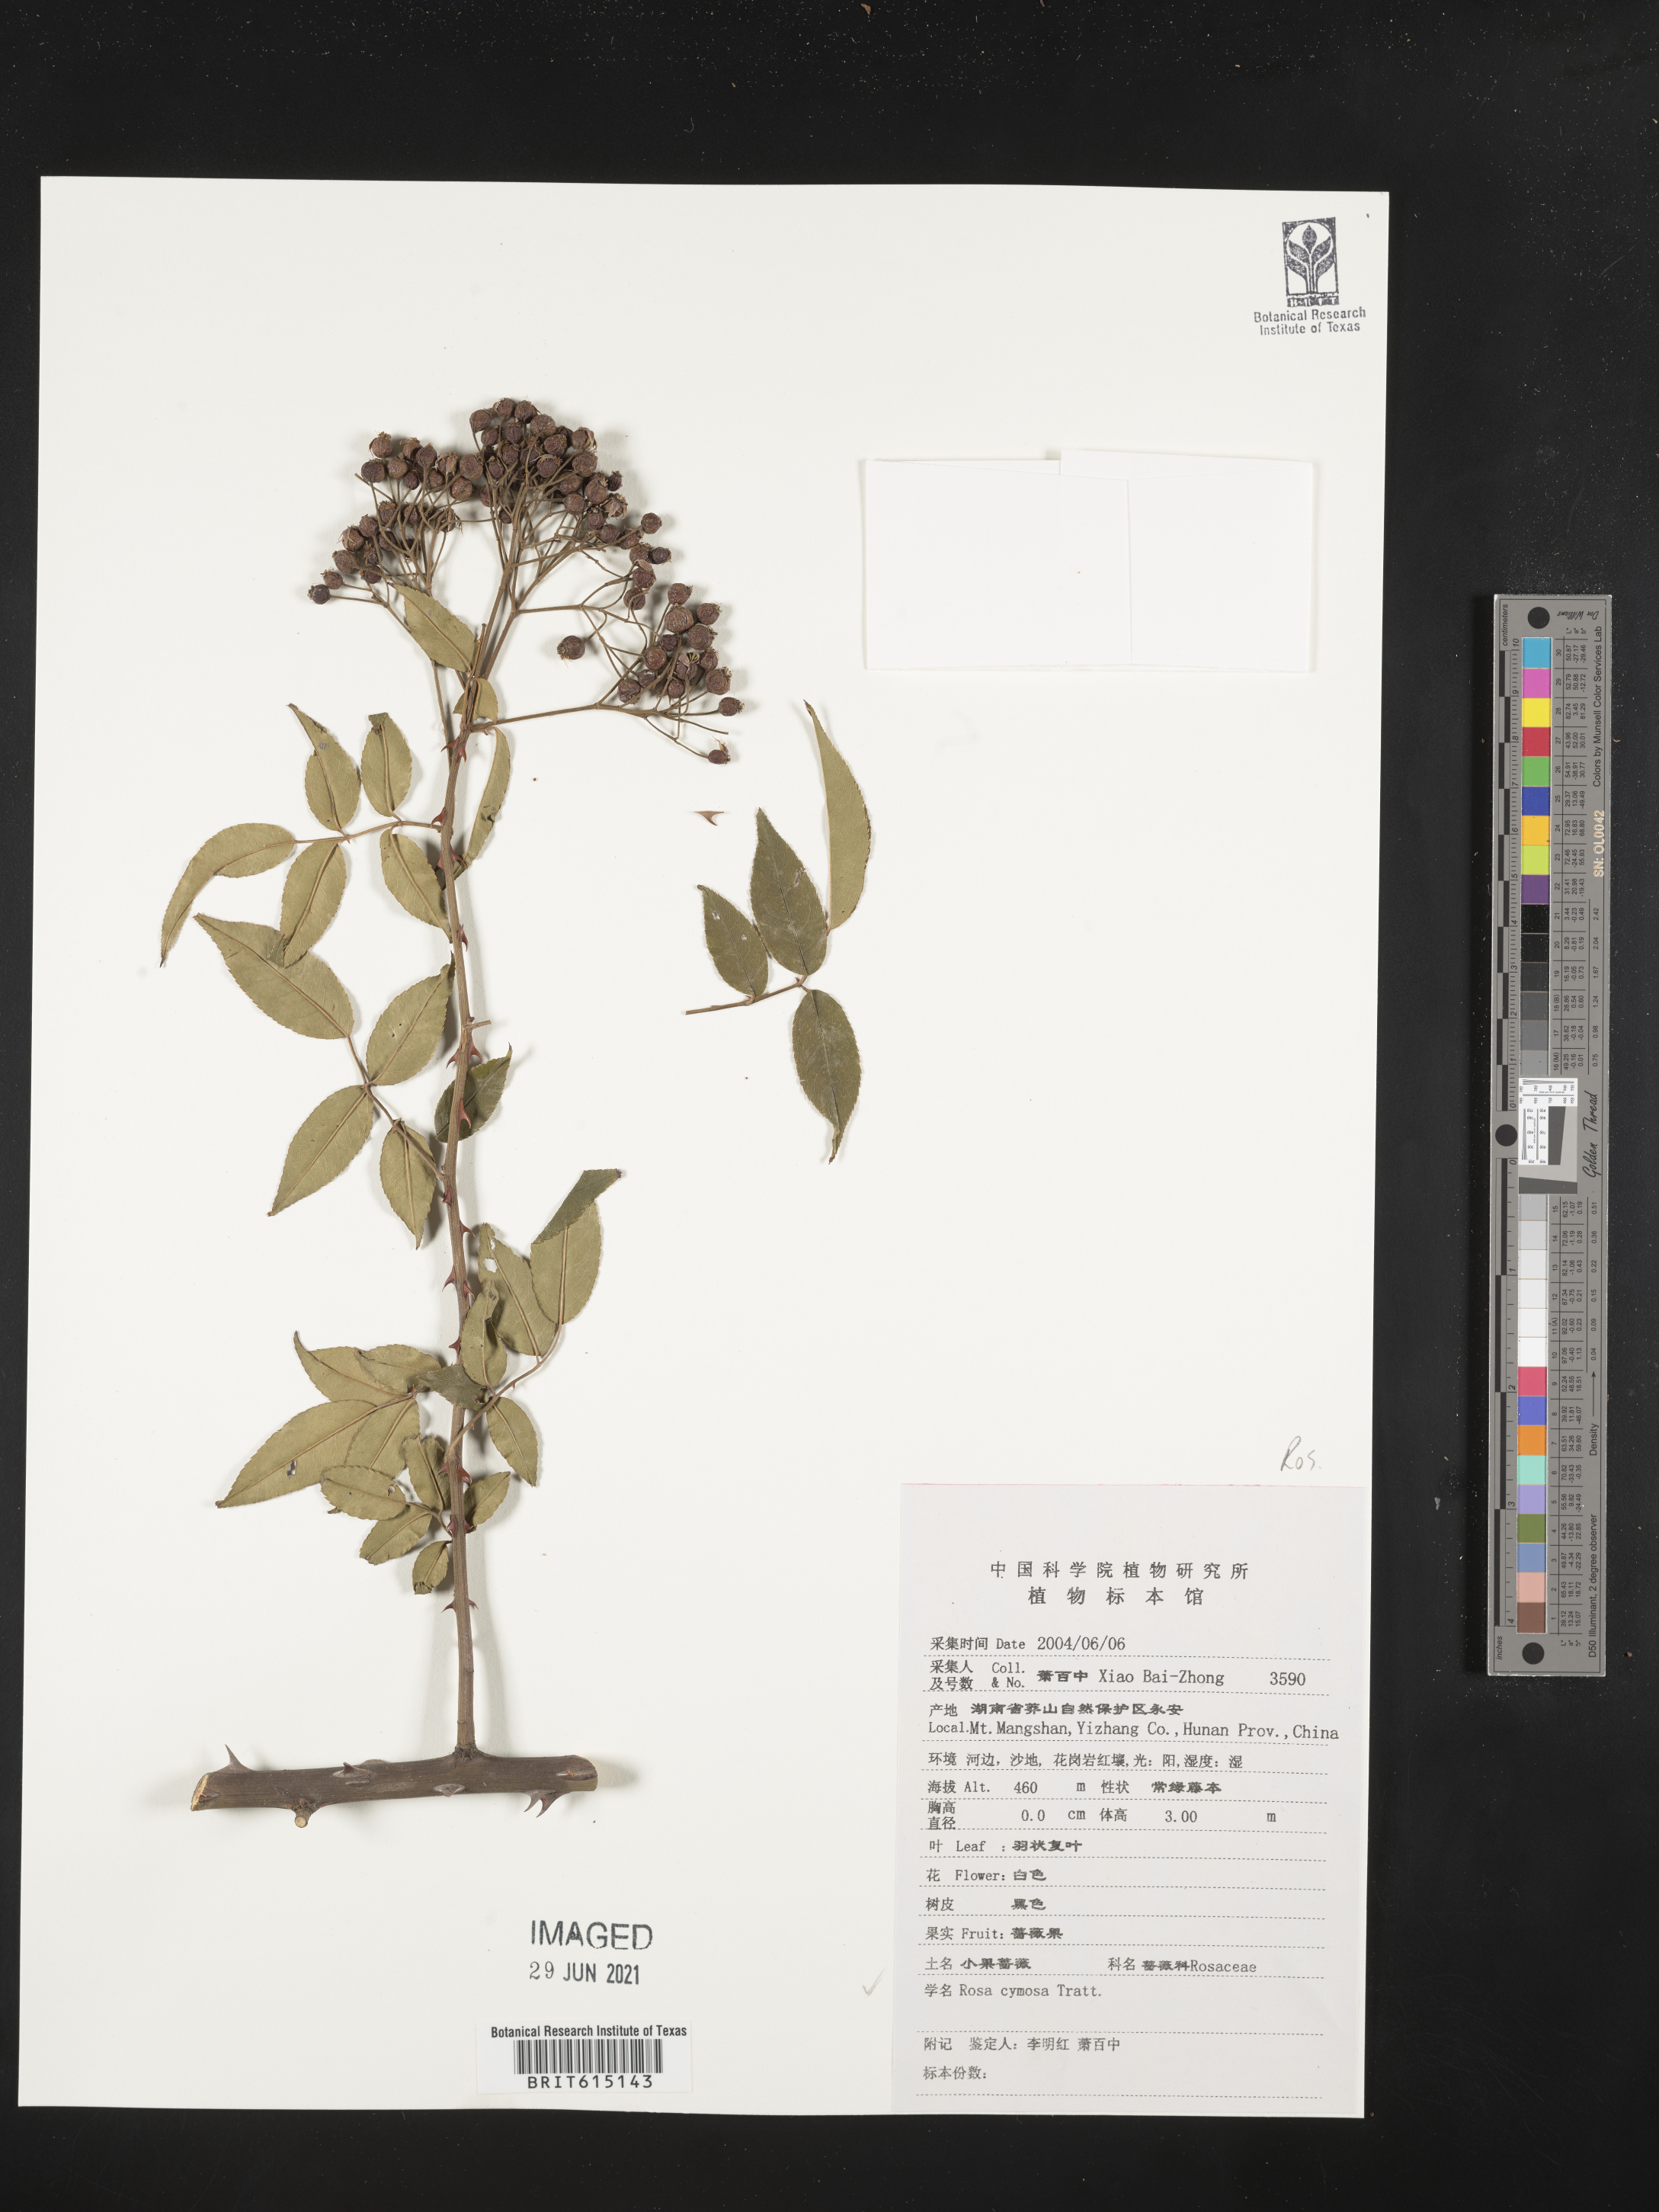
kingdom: Plantae
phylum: Tracheophyta
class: Magnoliopsida
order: Rosales
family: Rosaceae
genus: Rosa
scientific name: Rosa indica
